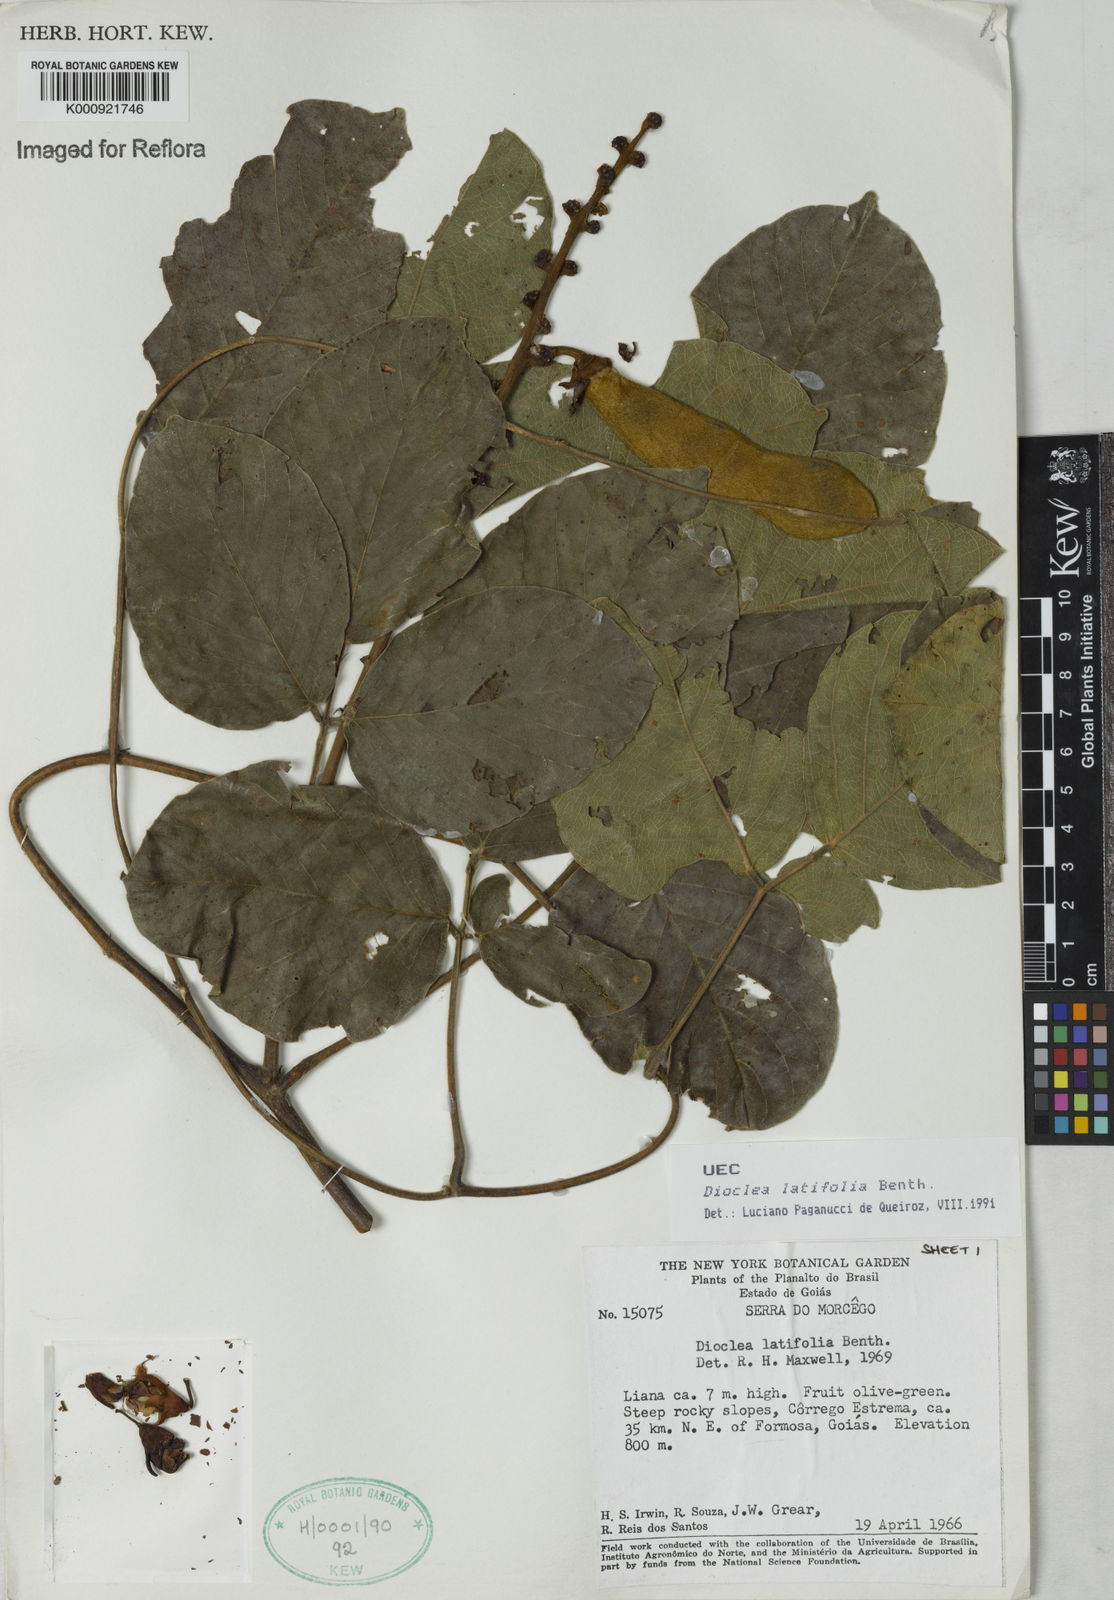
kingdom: Plantae
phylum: Tracheophyta
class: Magnoliopsida
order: Fabales
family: Fabaceae
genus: Macropsychanthus
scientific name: Macropsychanthus latifolius
